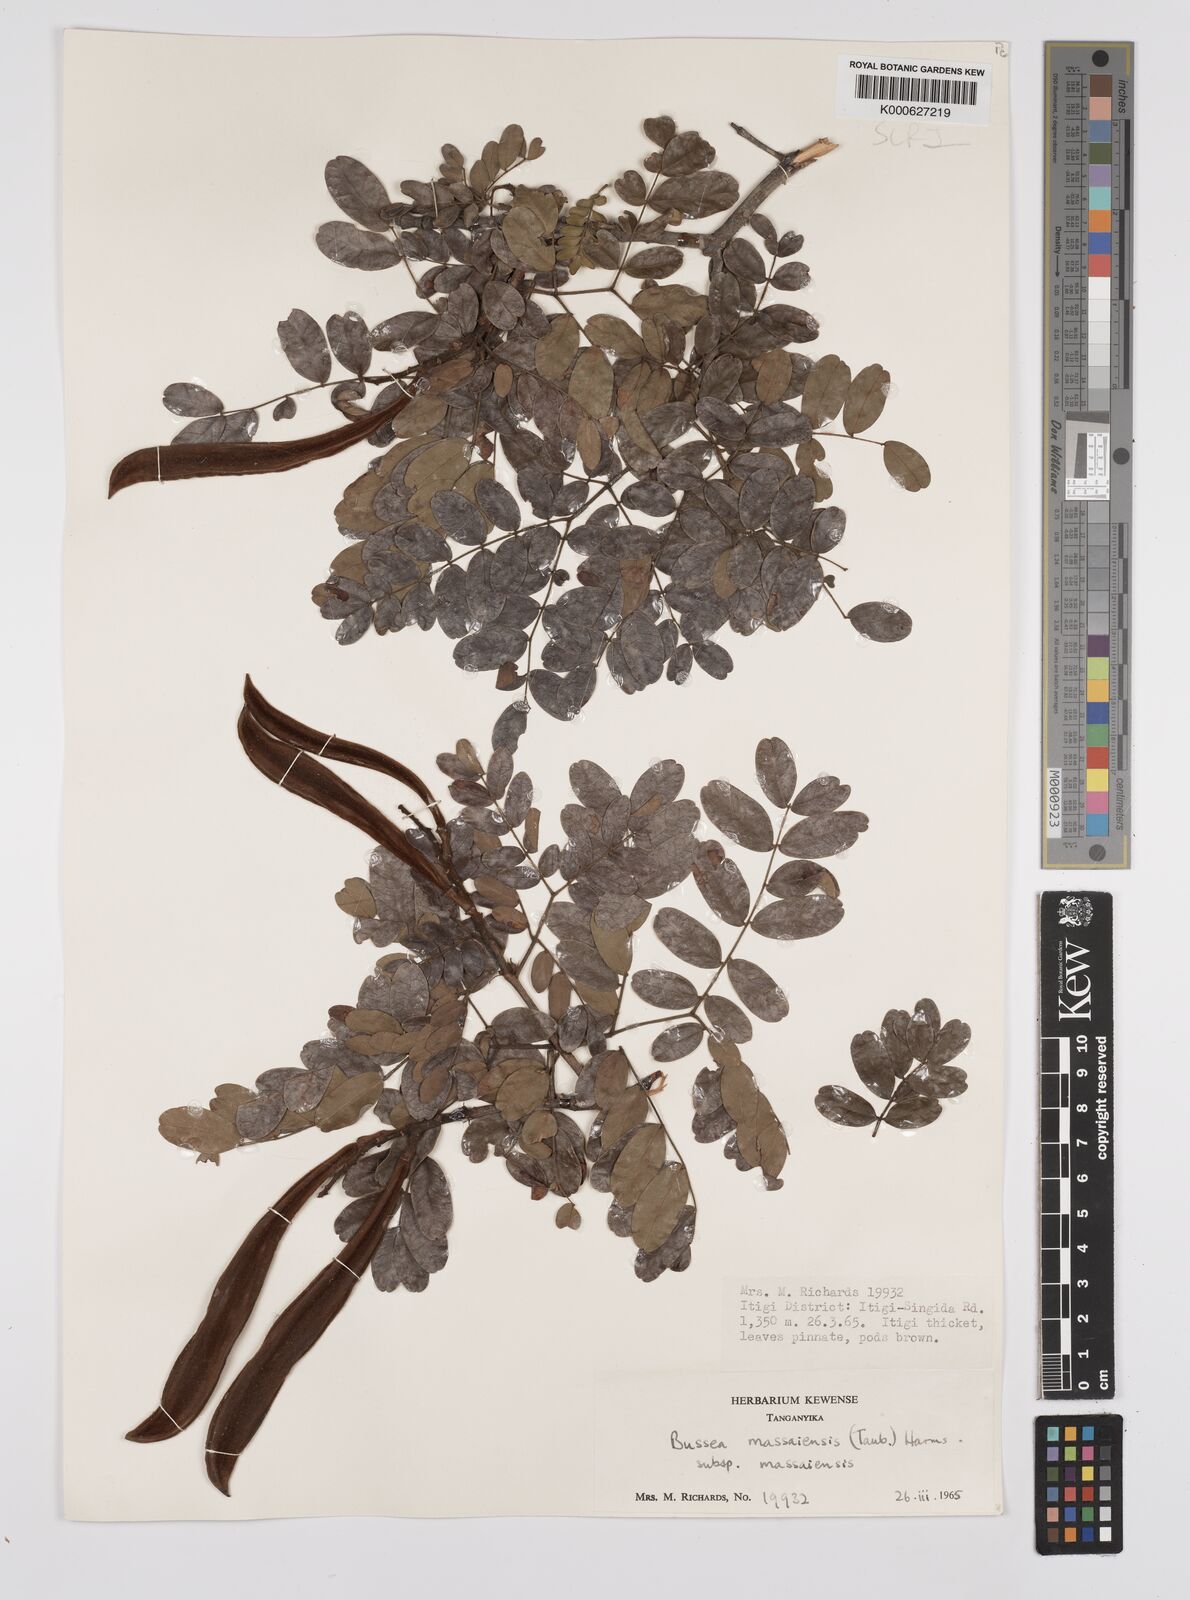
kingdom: Plantae
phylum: Tracheophyta
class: Magnoliopsida
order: Fabales
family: Fabaceae
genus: Bussea
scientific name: Bussea
